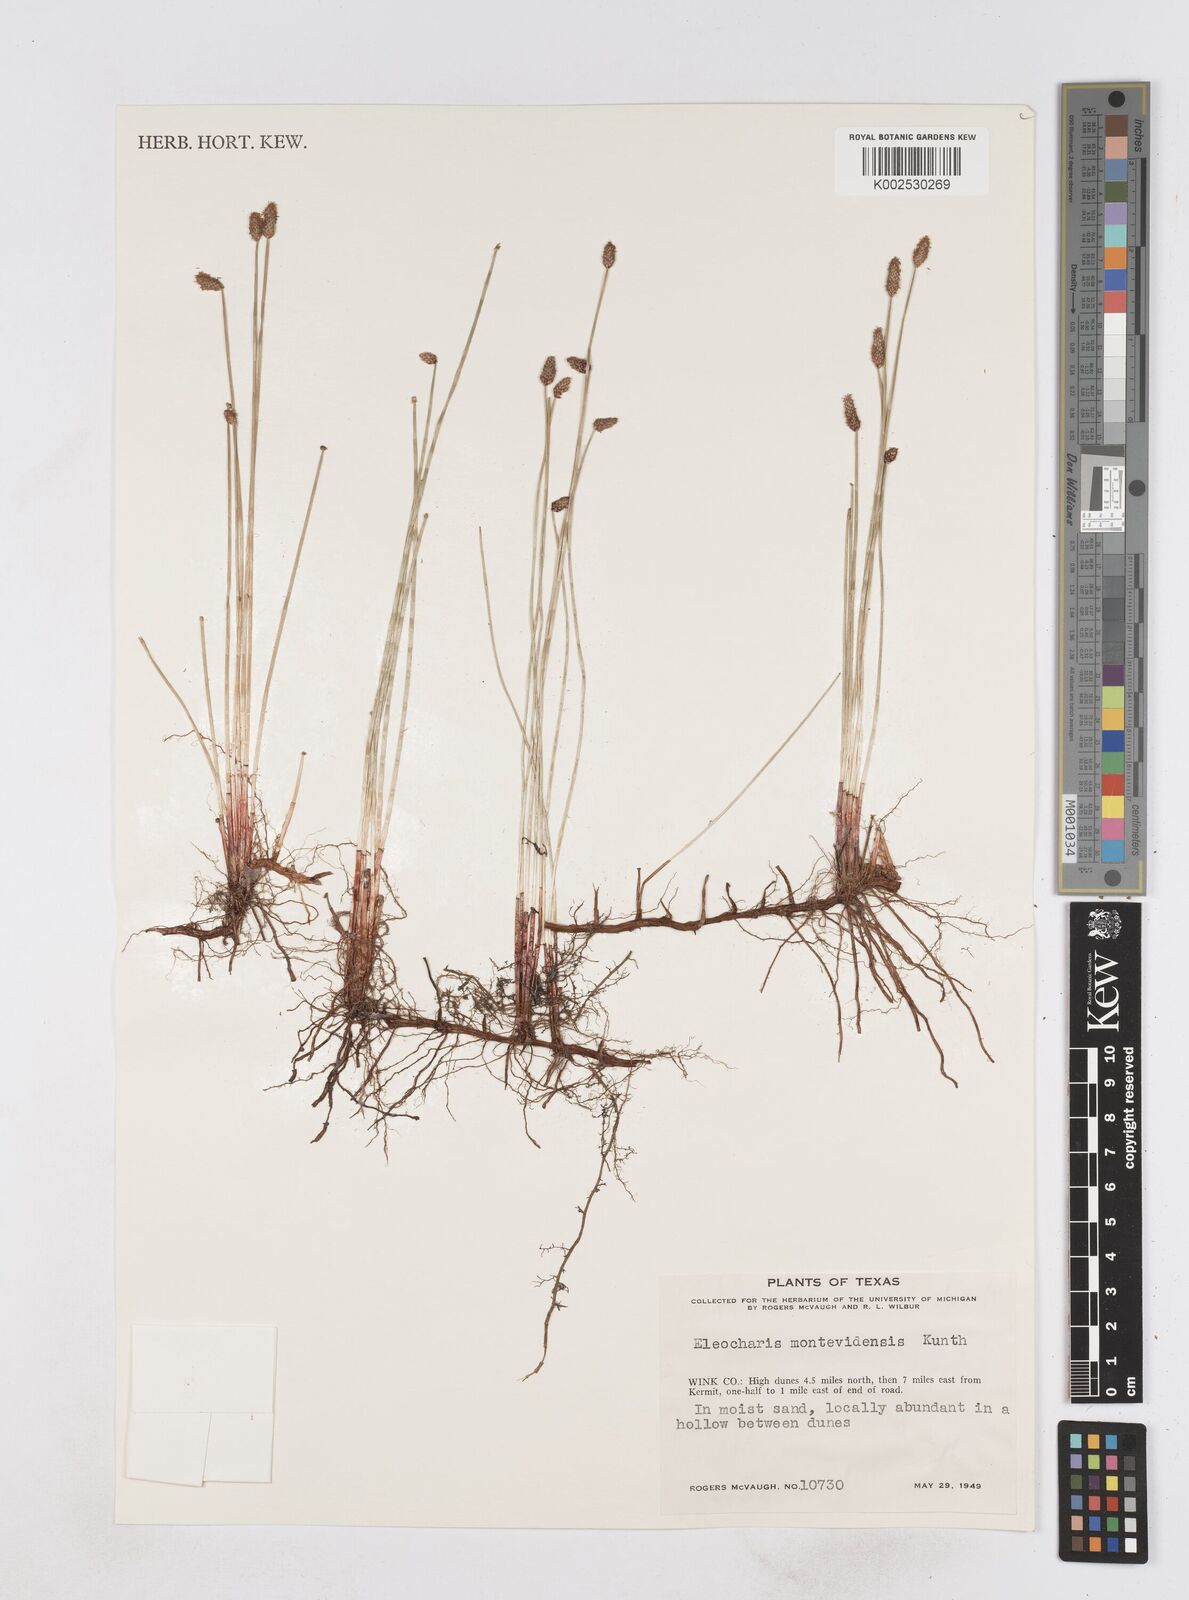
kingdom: Plantae
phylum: Tracheophyta
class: Liliopsida
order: Poales
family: Cyperaceae
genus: Eleocharis
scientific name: Eleocharis macounii
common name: Macoun's spikerush
